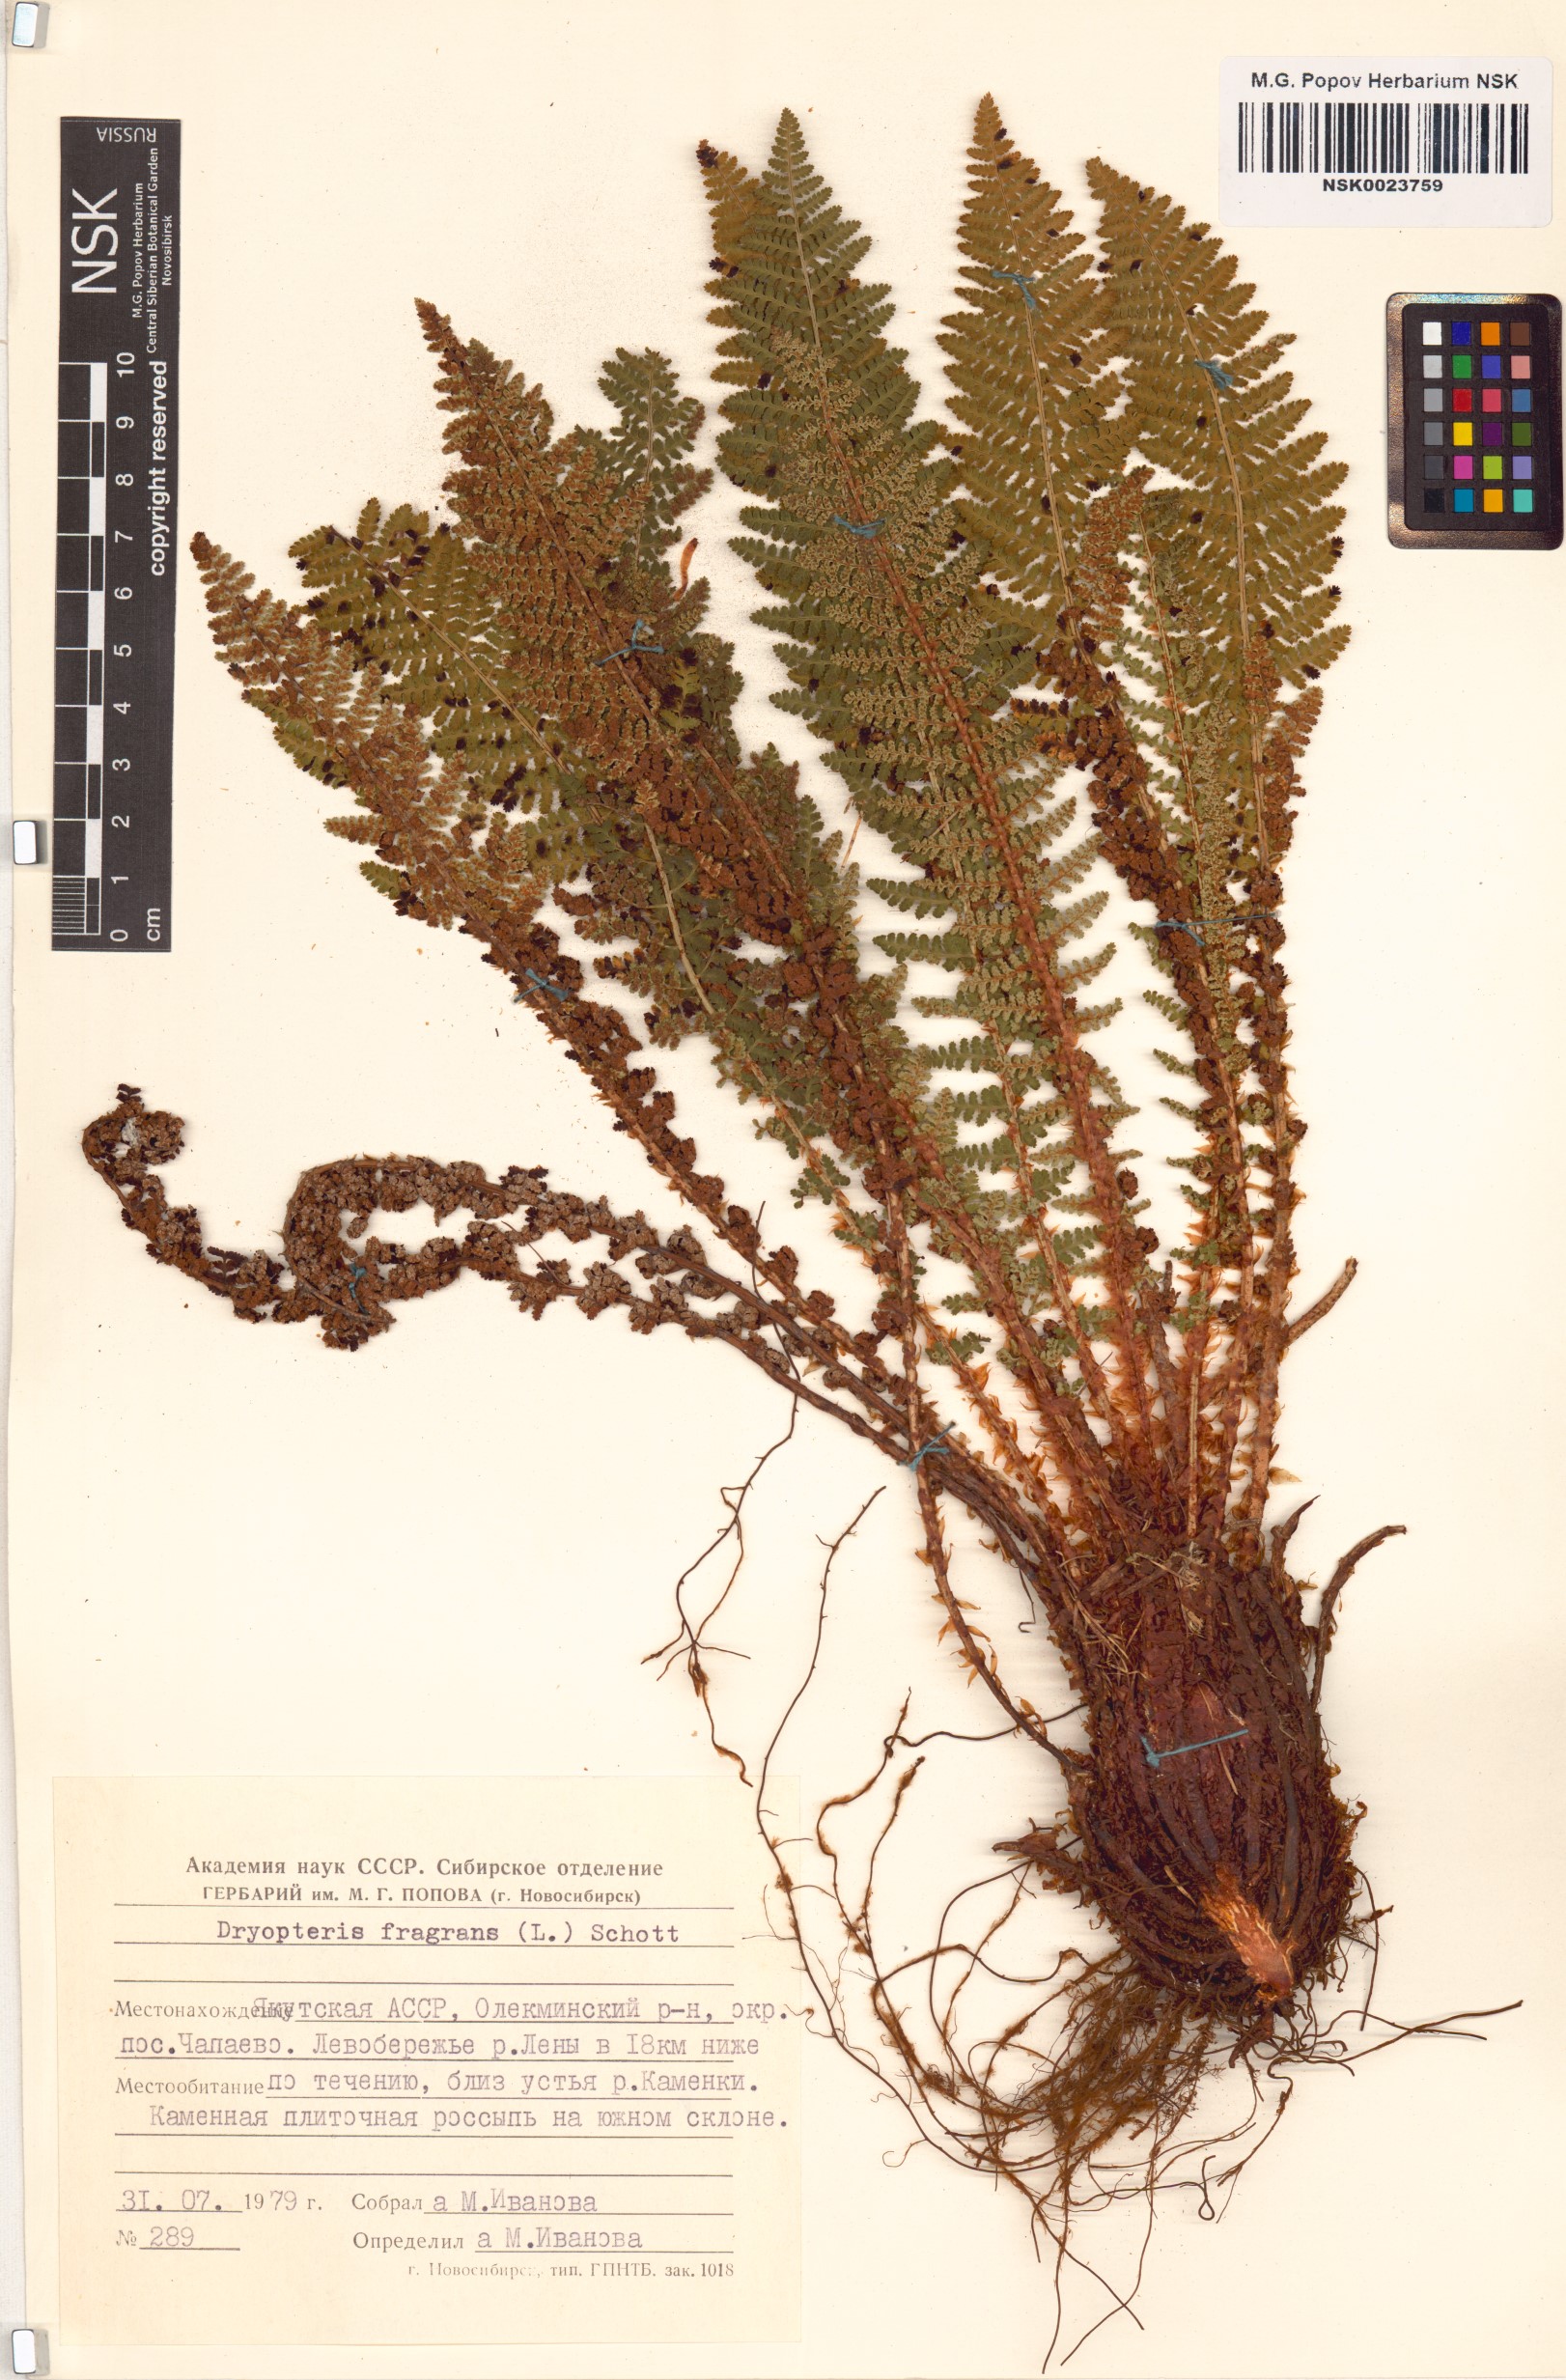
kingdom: Plantae
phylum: Tracheophyta
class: Polypodiopsida
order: Polypodiales
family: Dryopteridaceae
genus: Dryopteris
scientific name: Dryopteris fragrans
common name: Fragrant wood fern
